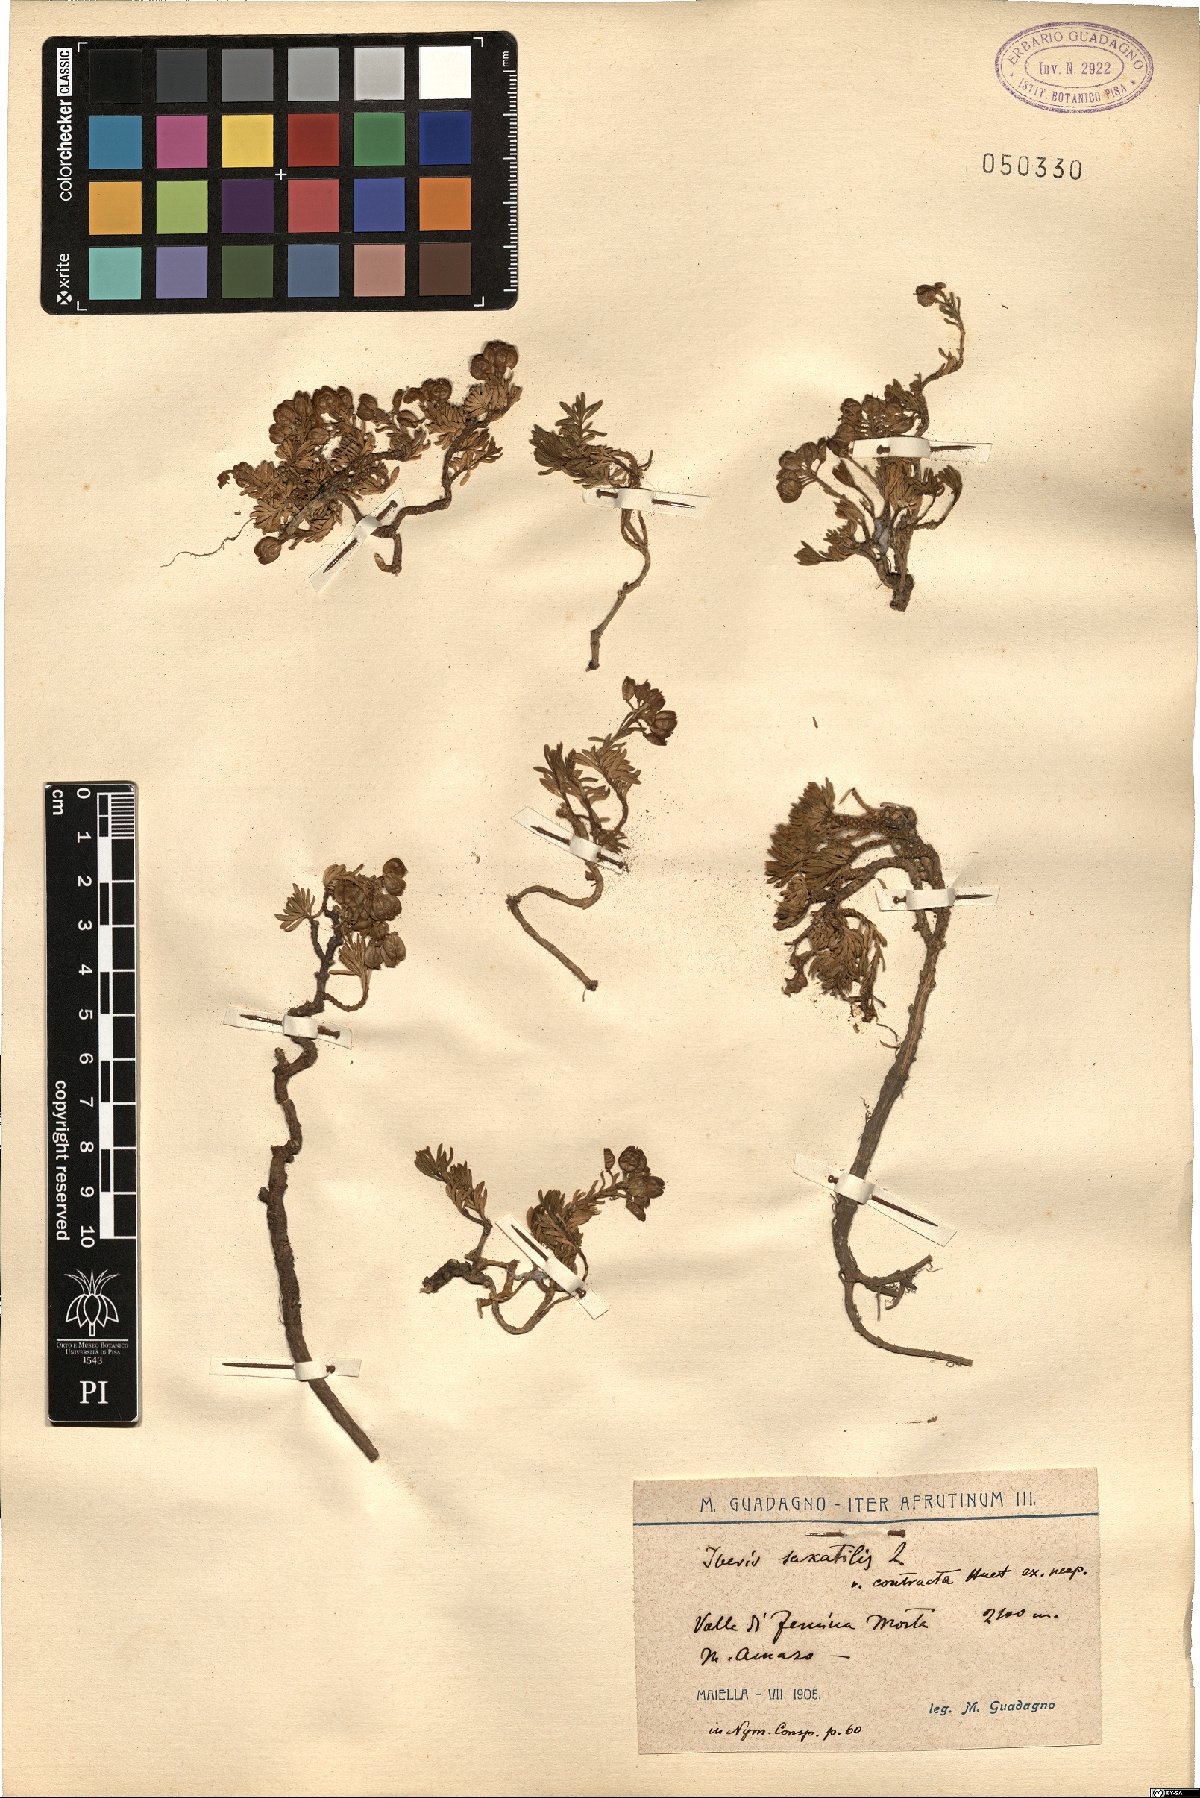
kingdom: Plantae
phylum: Tracheophyta
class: Magnoliopsida
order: Brassicales
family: Brassicaceae
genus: Iberis
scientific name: Iberis saxatilis
